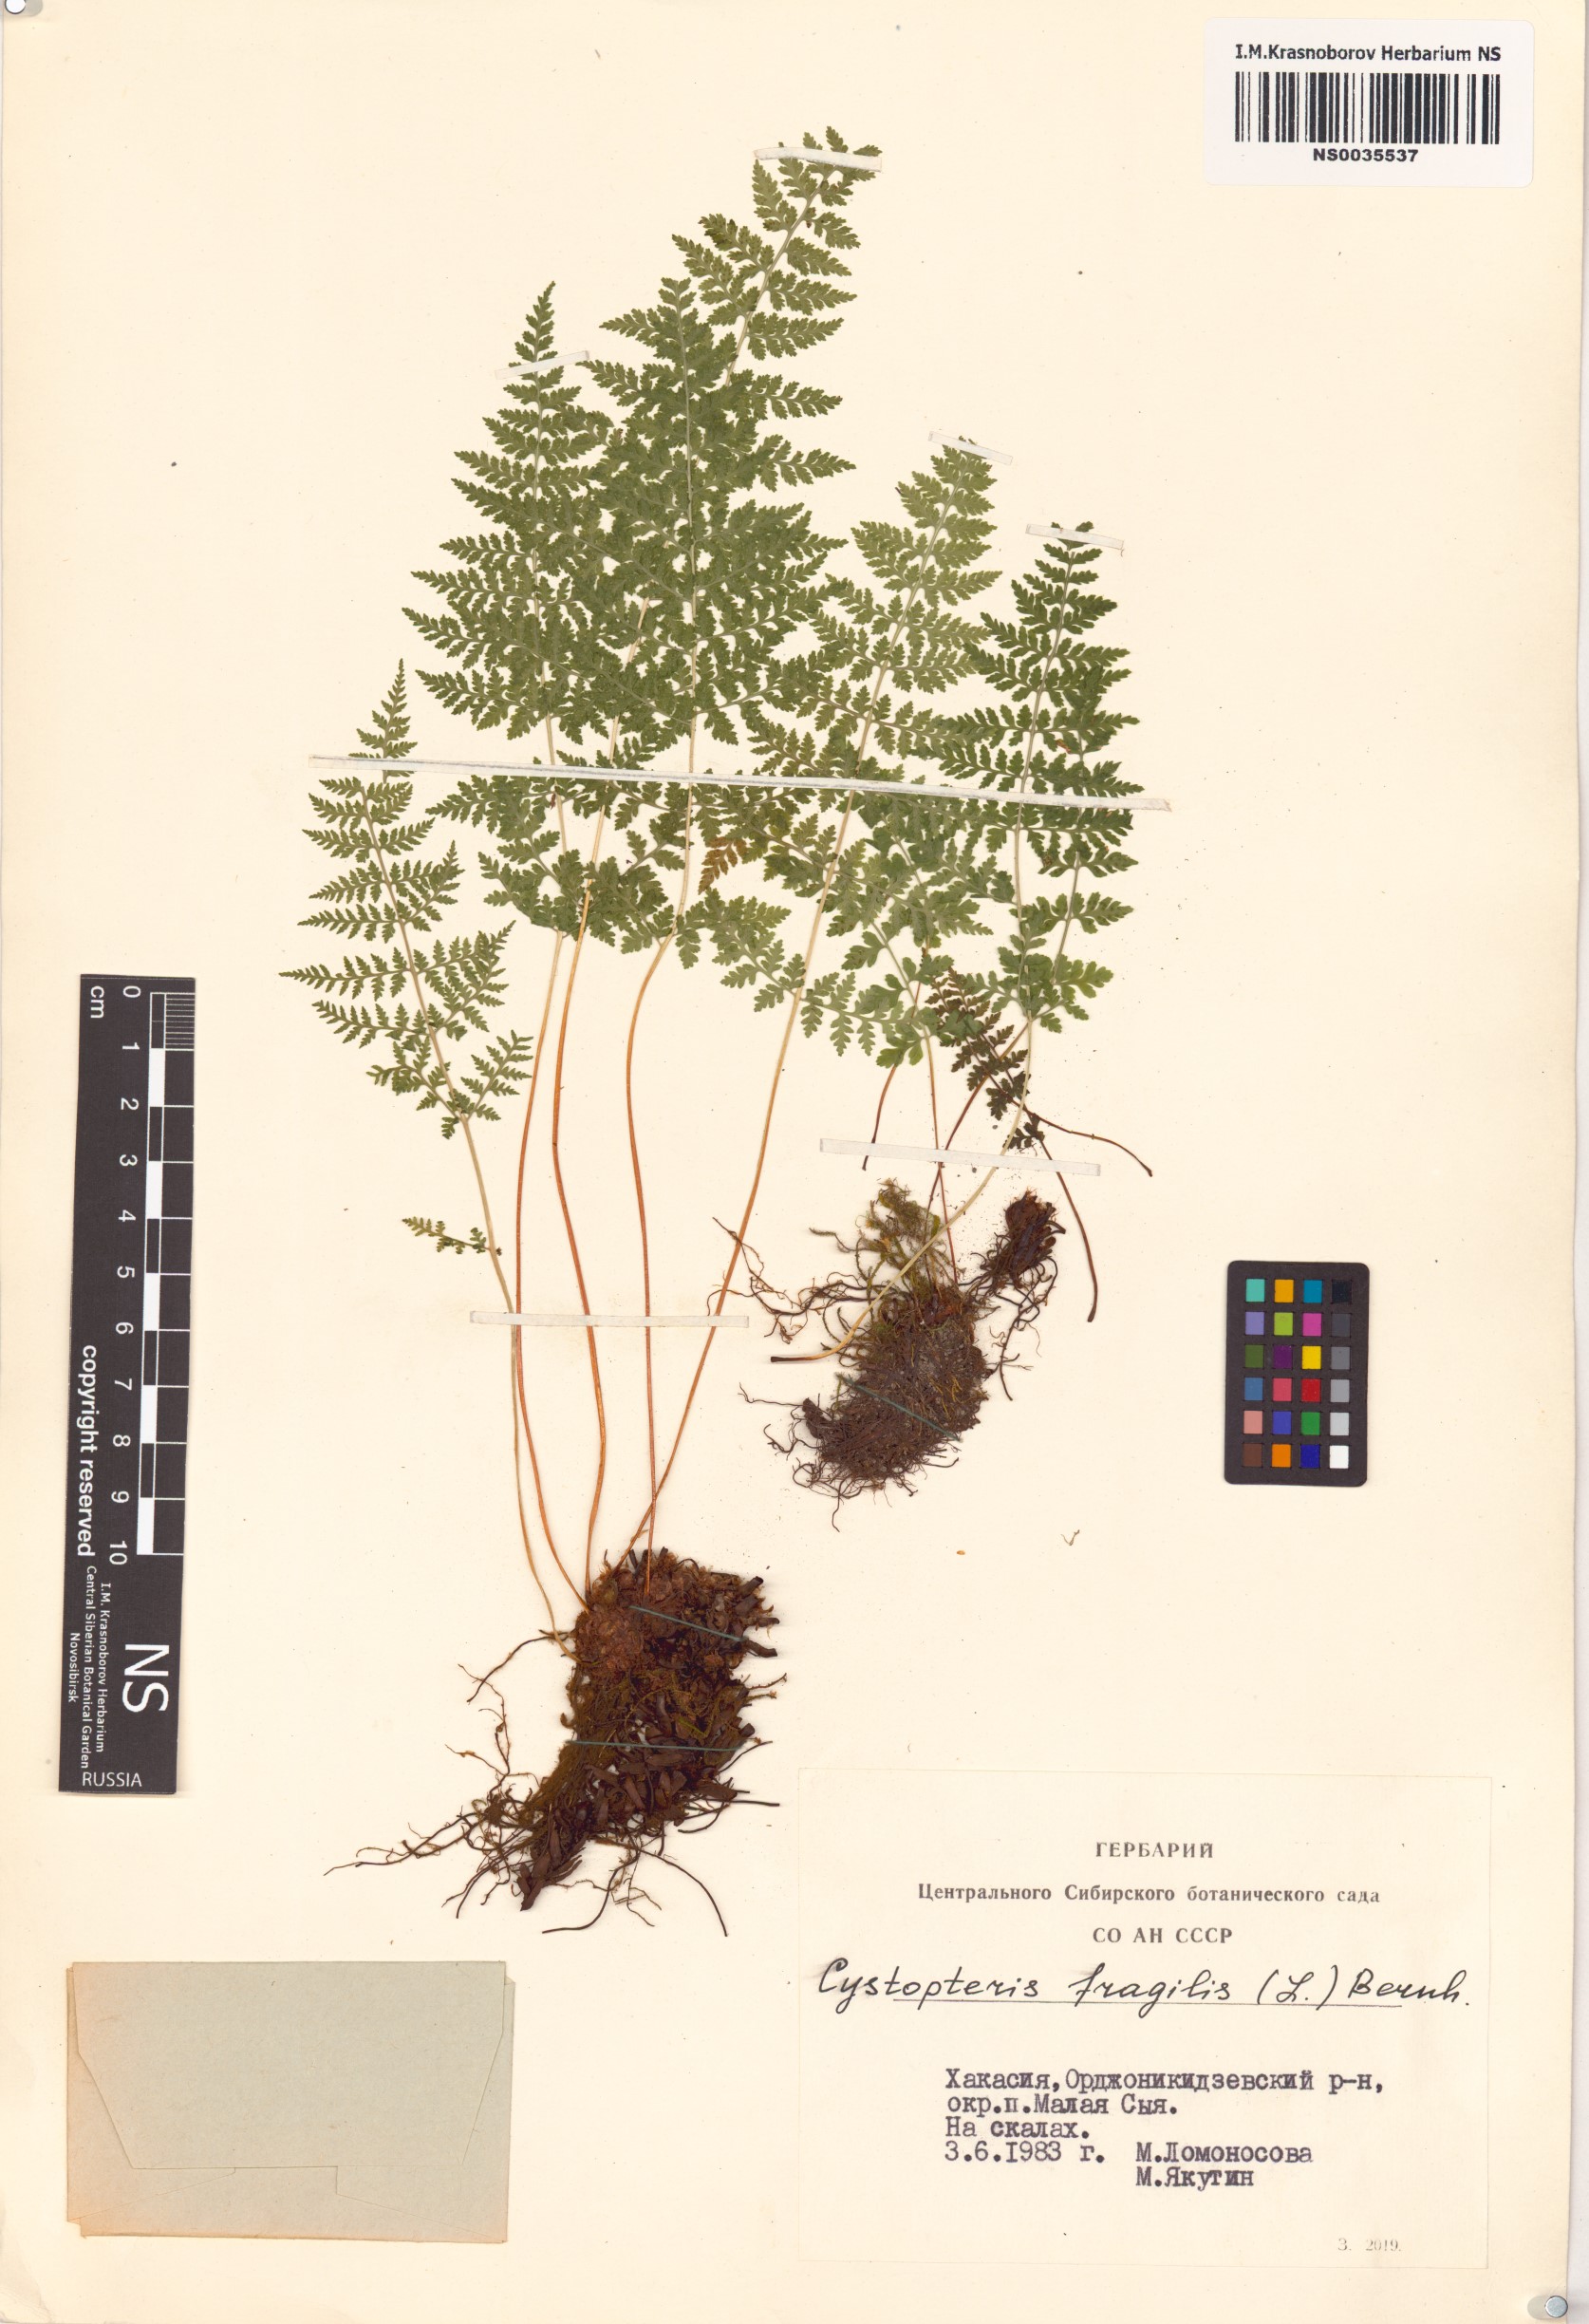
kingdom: Plantae
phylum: Tracheophyta
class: Polypodiopsida
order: Polypodiales
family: Cystopteridaceae
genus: Cystopteris
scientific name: Cystopteris fragilis
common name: Brittle bladder fern
